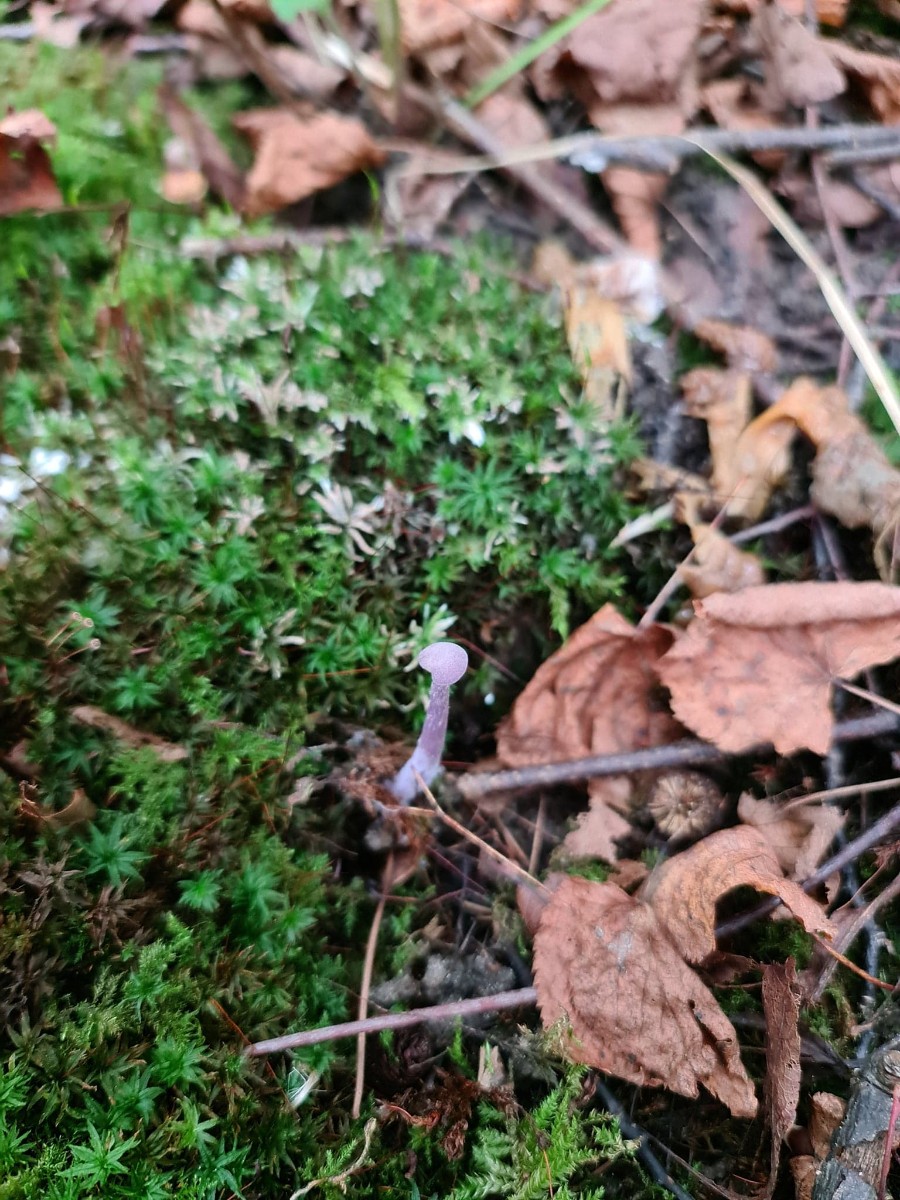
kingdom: Fungi
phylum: Basidiomycota
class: Agaricomycetes
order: Agaricales
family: Hydnangiaceae
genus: Laccaria
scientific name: Laccaria amethystina
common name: violet ametysthat
